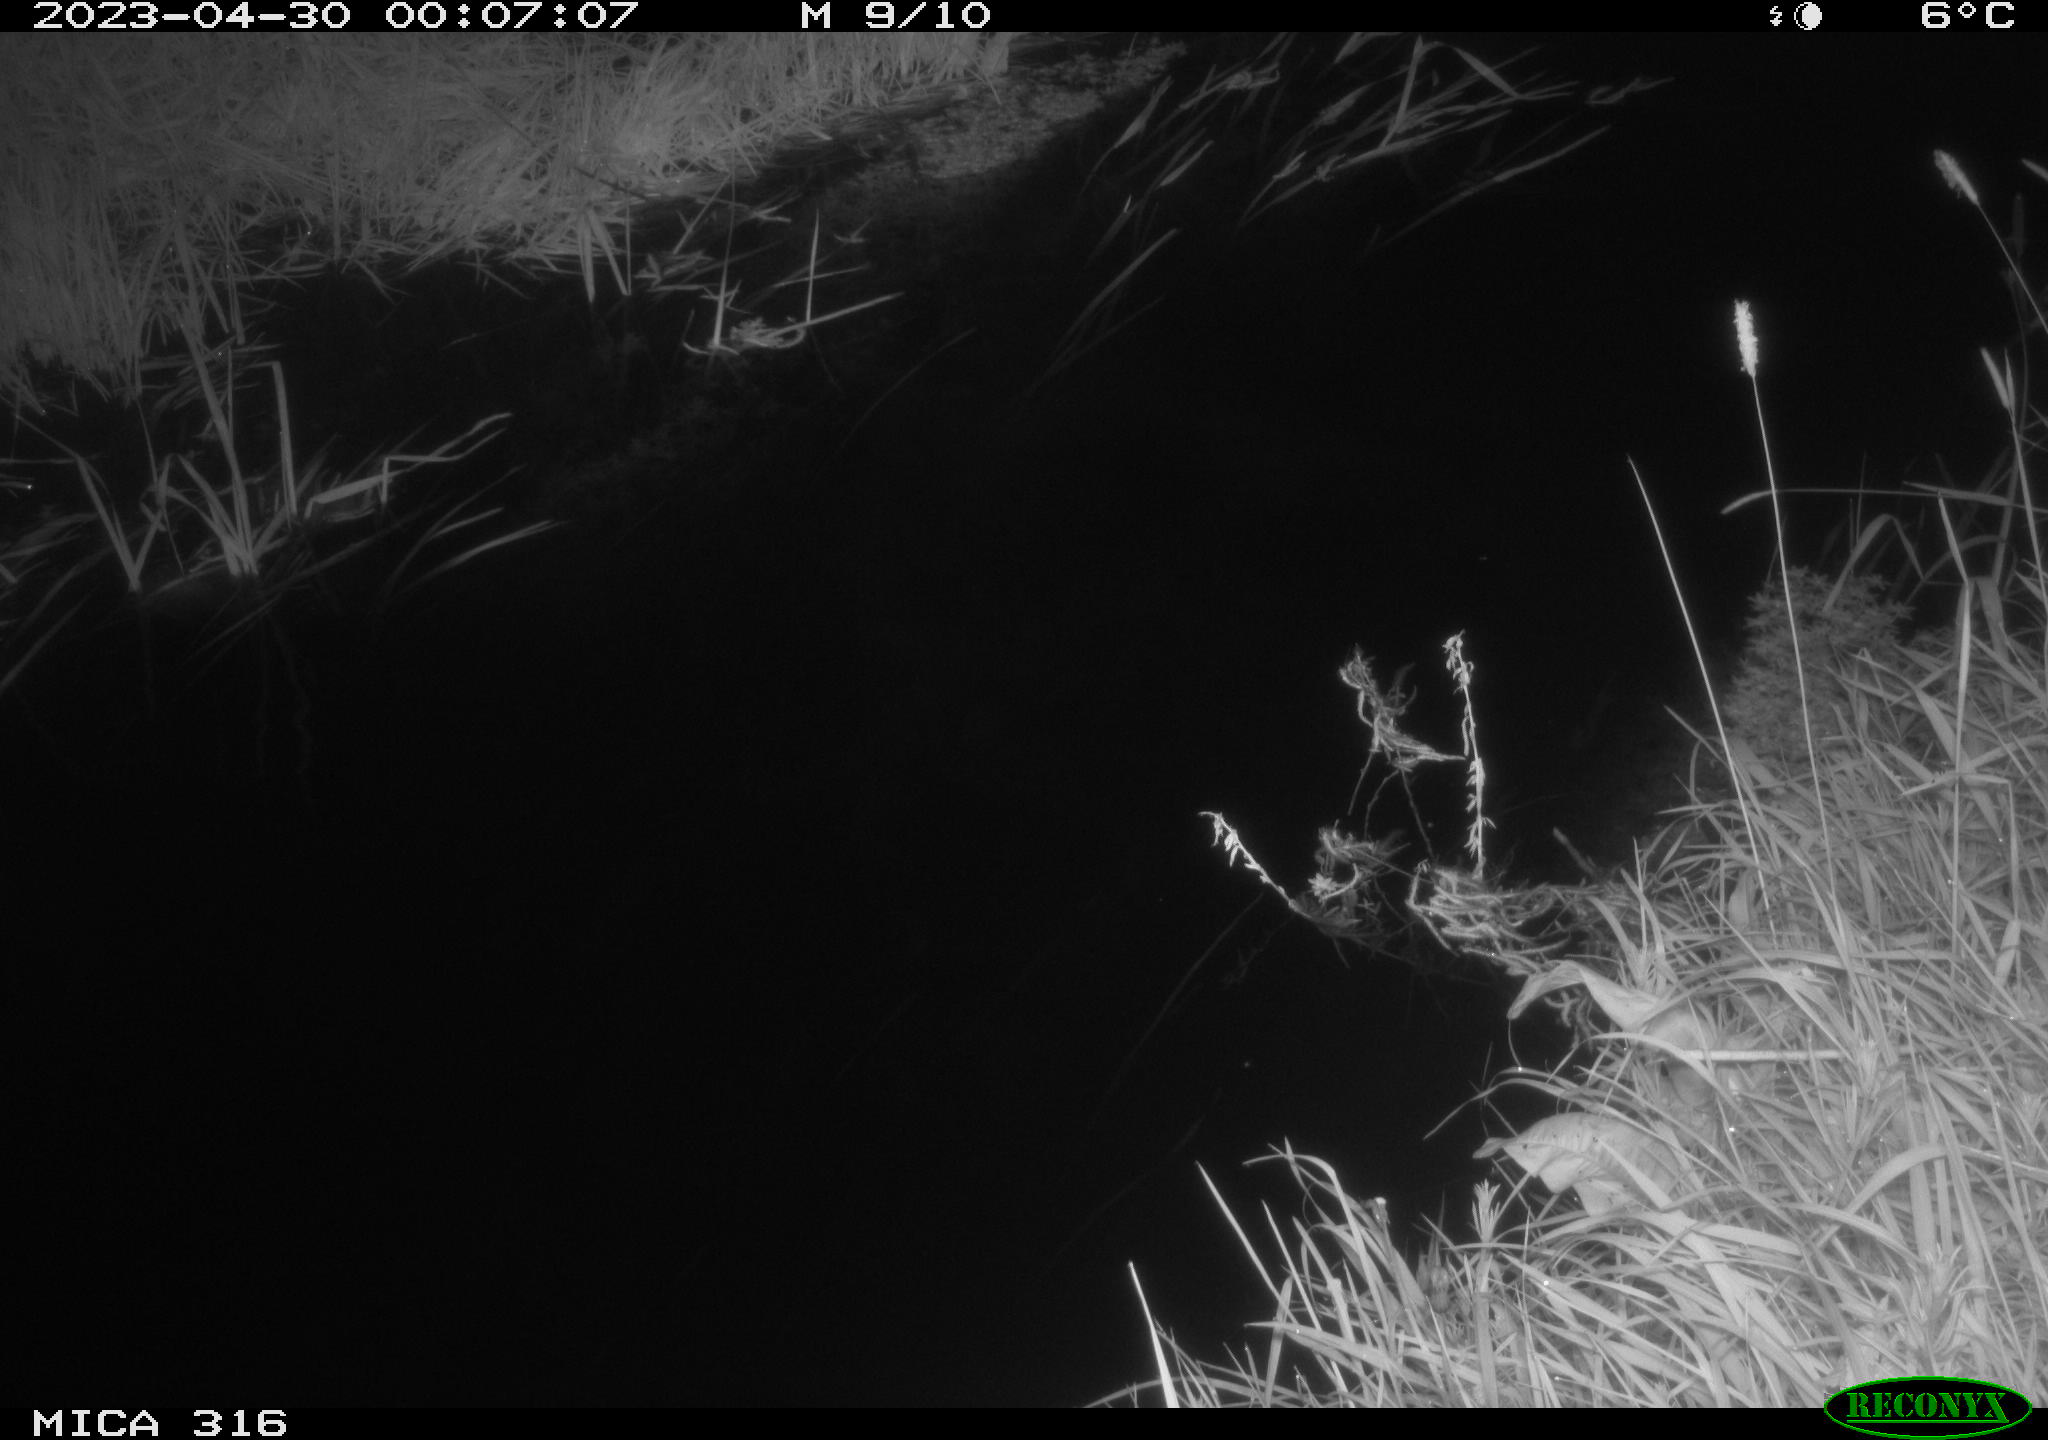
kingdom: Animalia
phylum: Chordata
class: Aves
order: Anseriformes
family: Anatidae
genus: Anas
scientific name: Anas
